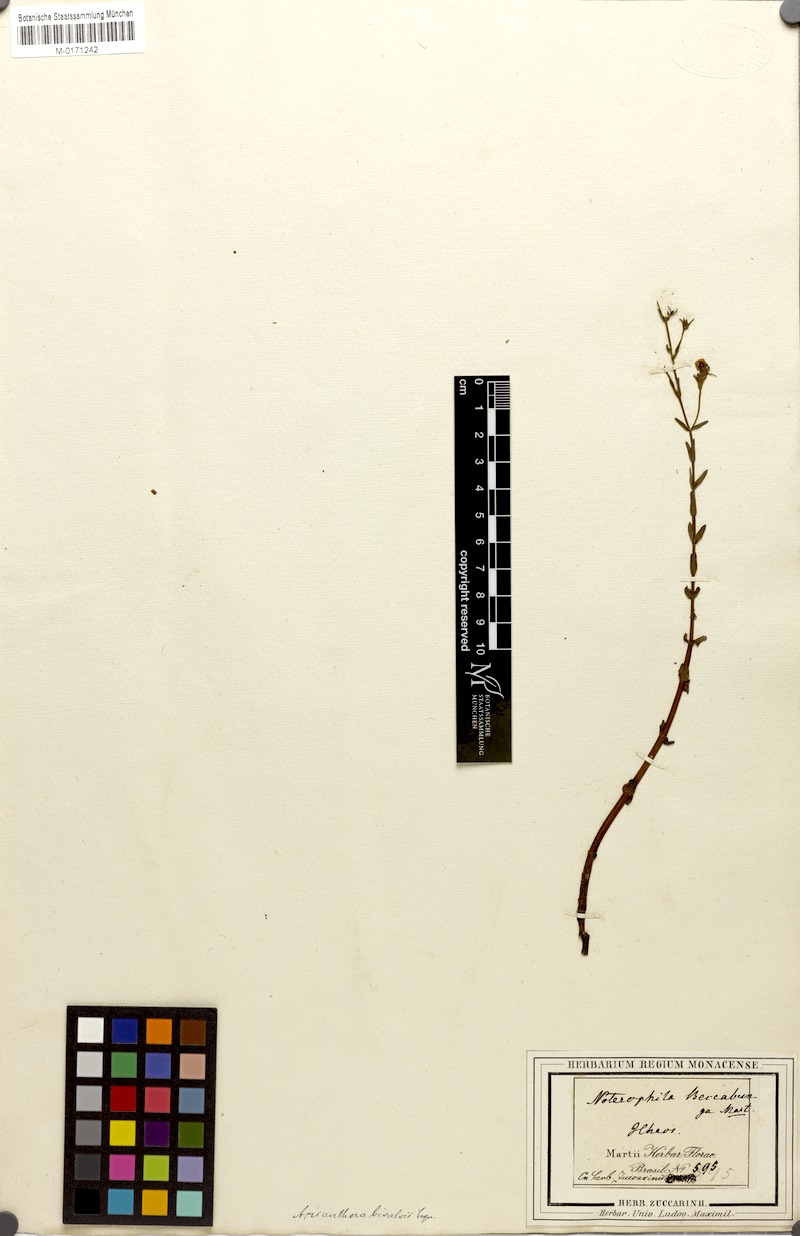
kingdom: Plantae
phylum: Tracheophyta
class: Magnoliopsida
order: Myrtales
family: Melastomataceae
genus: Noterophila
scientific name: Noterophila bivalvis
